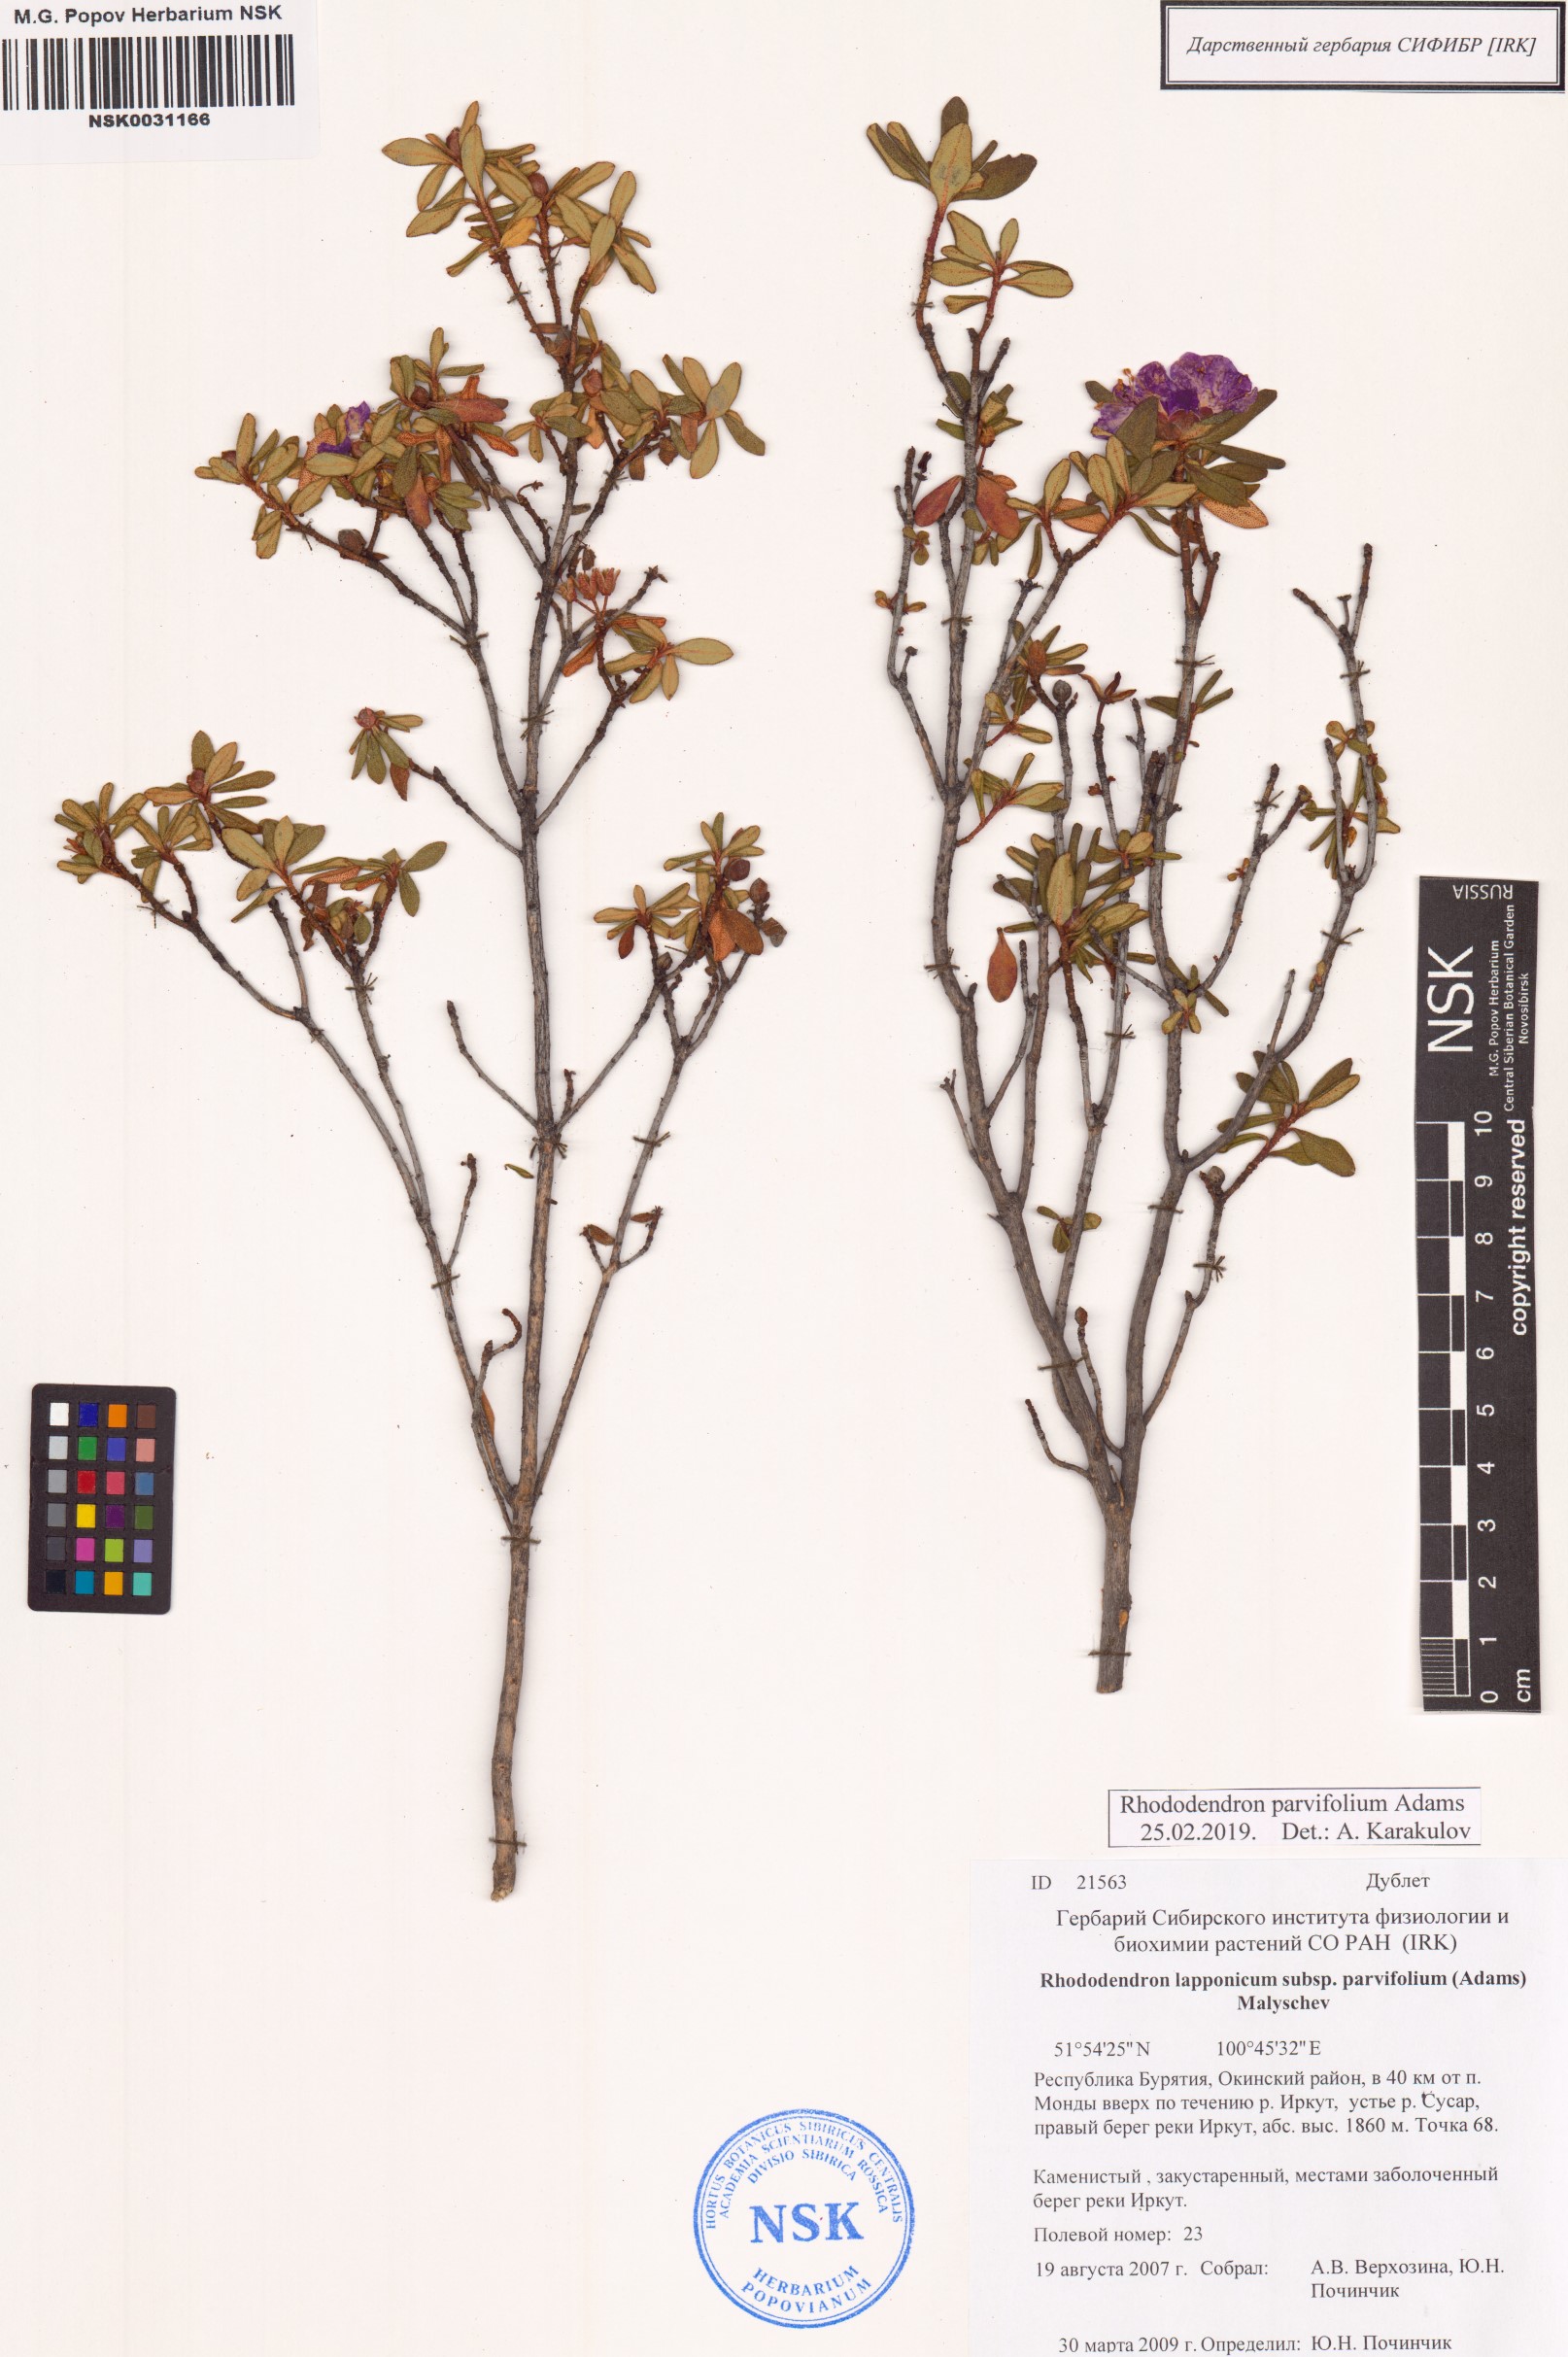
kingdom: Plantae
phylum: Tracheophyta
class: Magnoliopsida
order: Ericales
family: Ericaceae
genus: Rhododendron
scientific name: Rhododendron parvifolium
